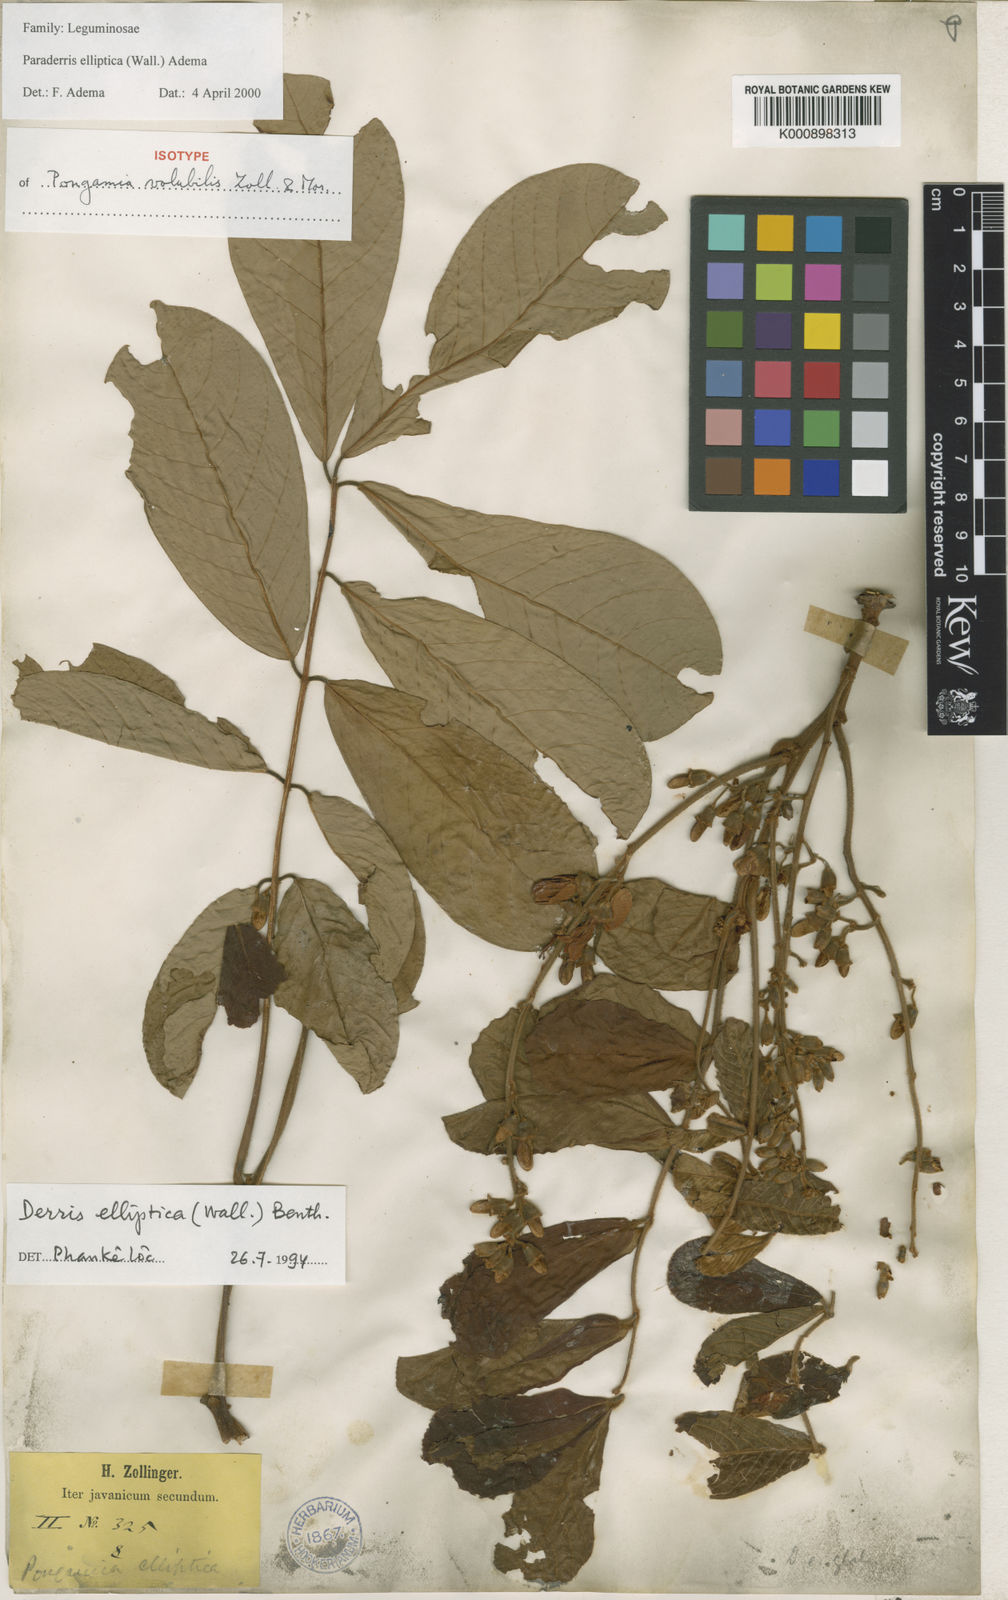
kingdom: Plantae
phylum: Tracheophyta
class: Magnoliopsida
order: Fabales
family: Fabaceae
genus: Derris
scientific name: Derris elliptica
